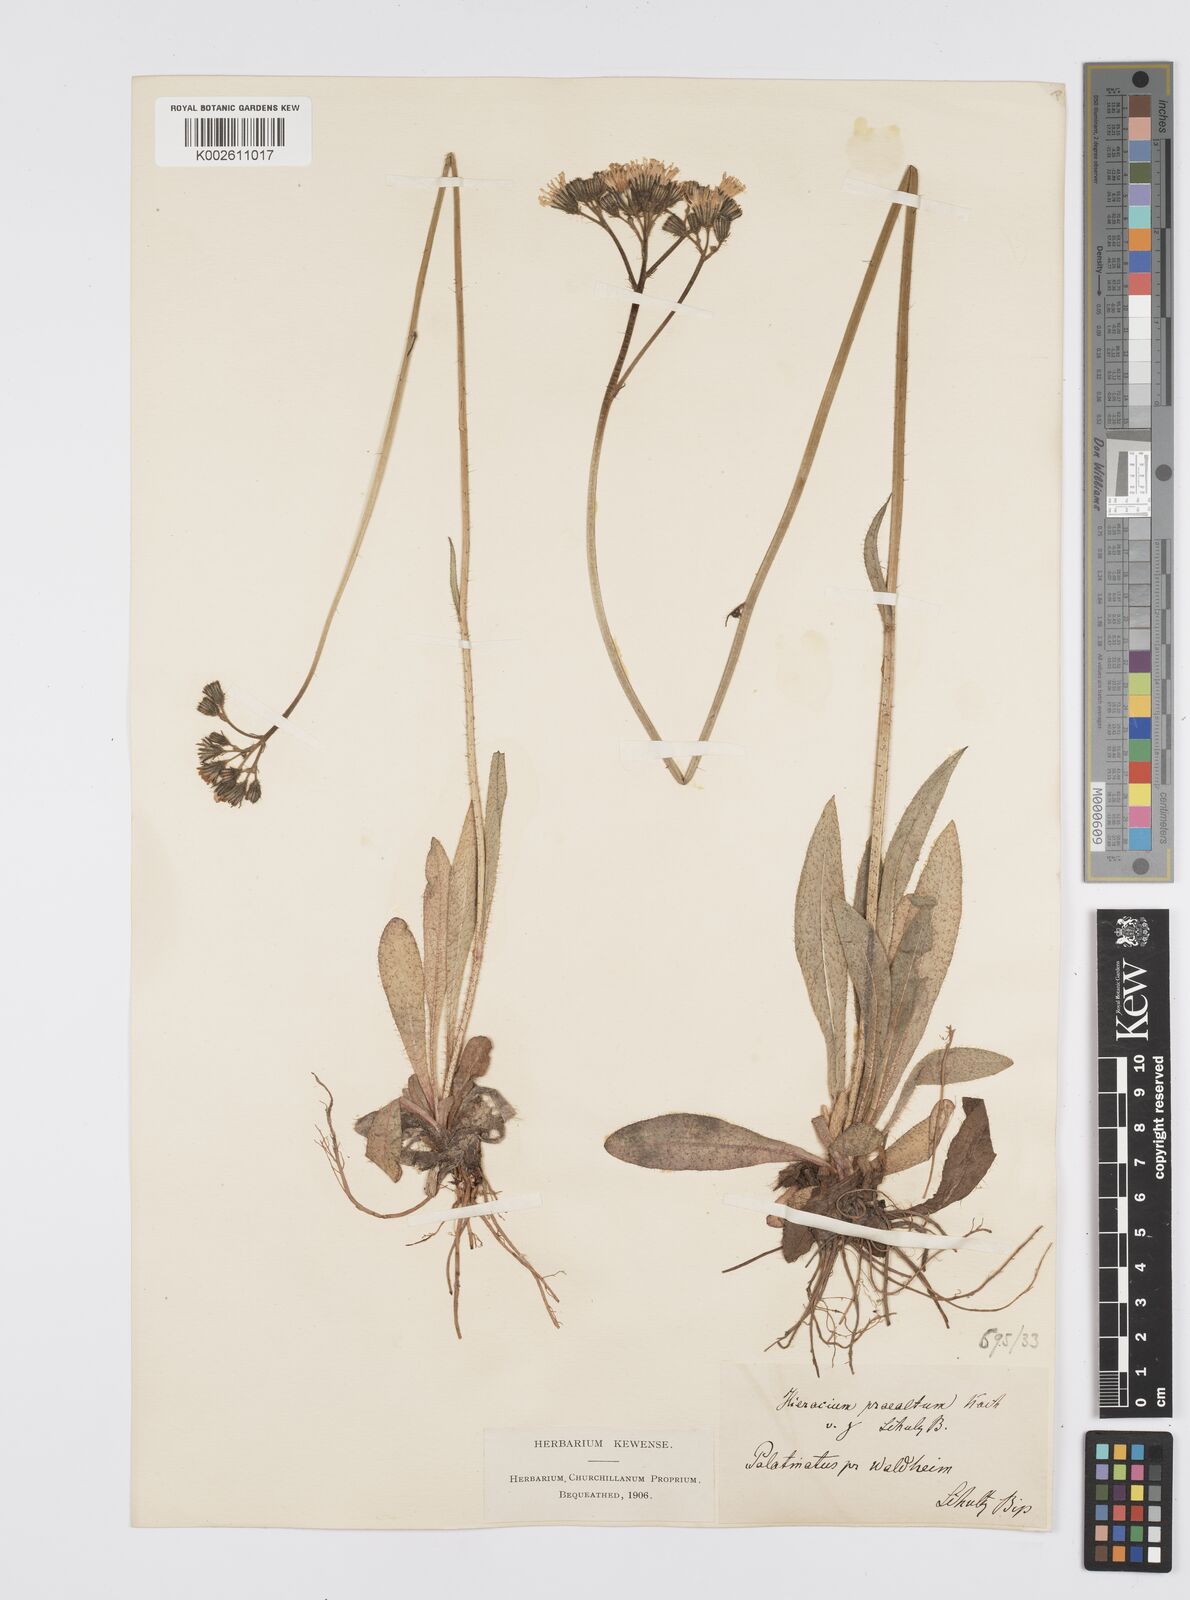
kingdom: Plantae
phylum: Tracheophyta
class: Magnoliopsida
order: Asterales
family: Asteraceae
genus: Pilosella
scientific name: Pilosella piloselloides
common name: Glaucous king-devil
